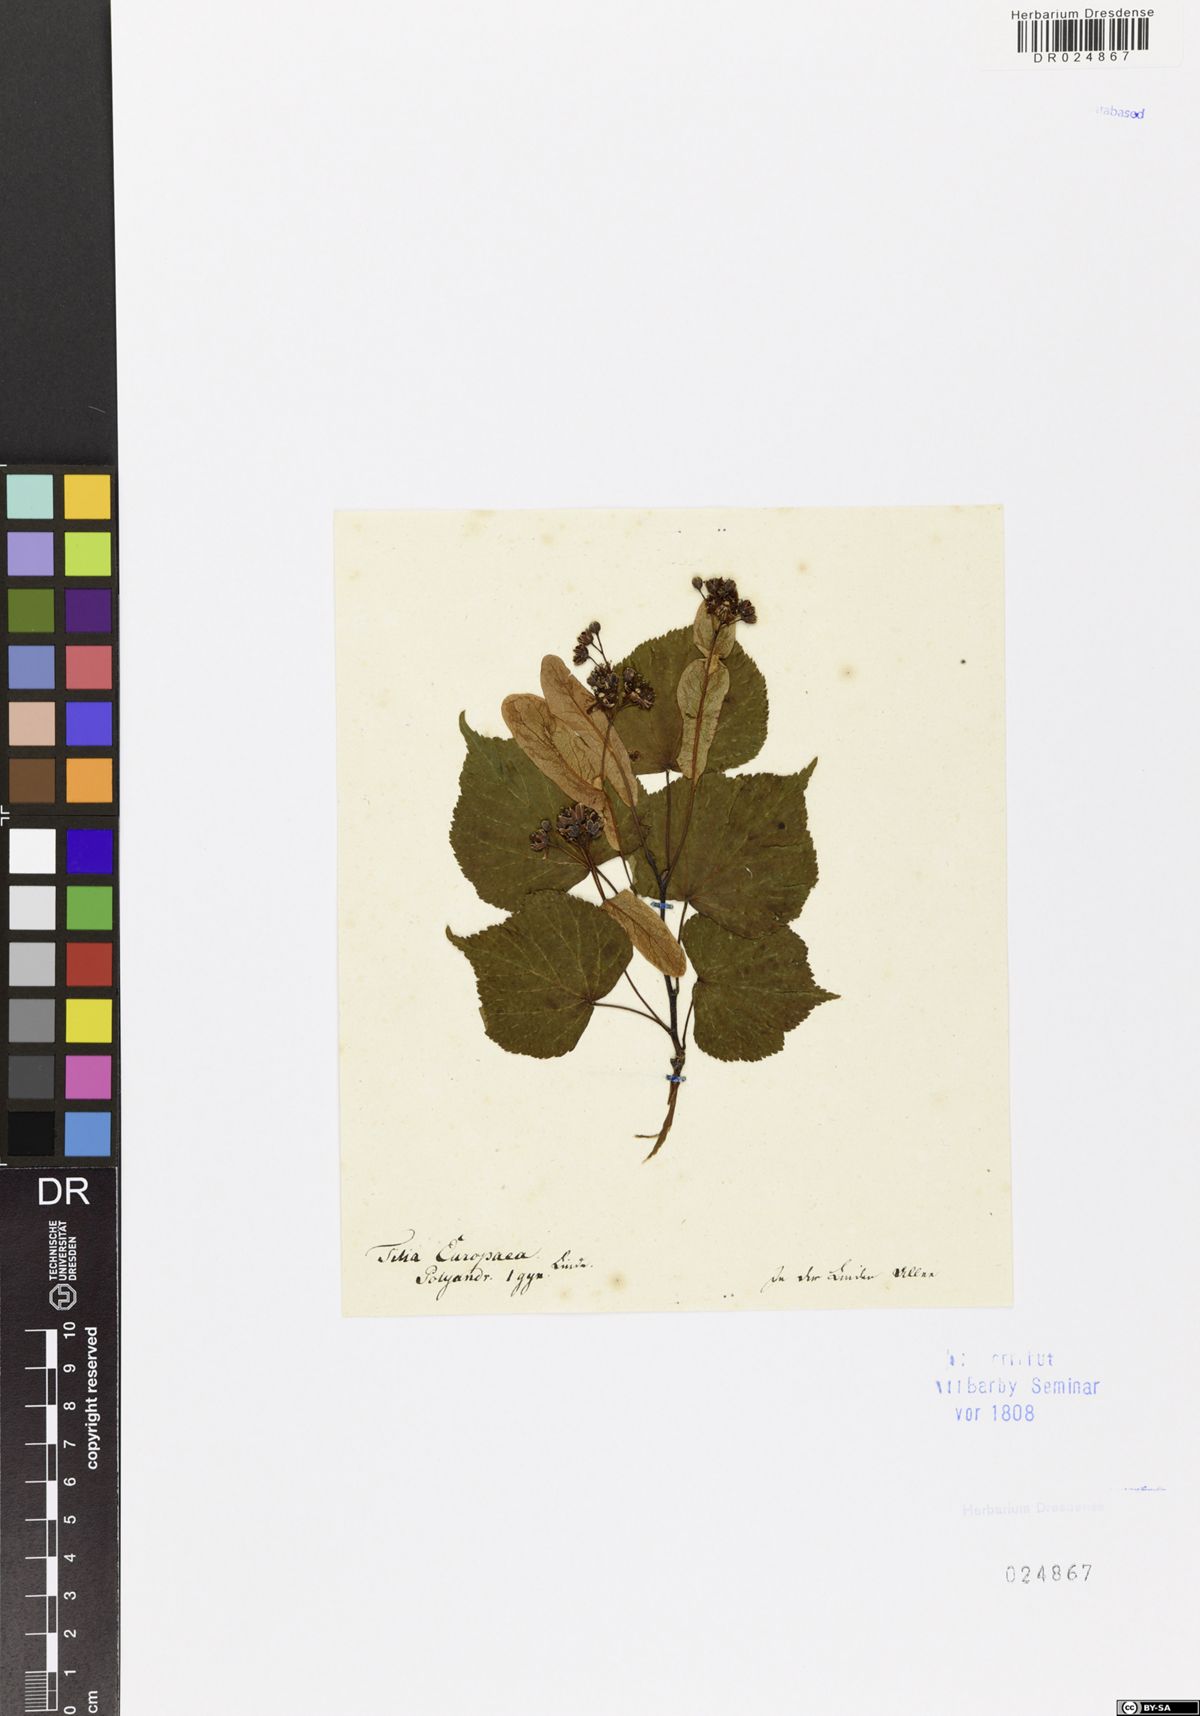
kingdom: Plantae
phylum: Tracheophyta
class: Magnoliopsida
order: Malvales
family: Malvaceae
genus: Tilia
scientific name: Tilia cordata
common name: Small-leaved lime
